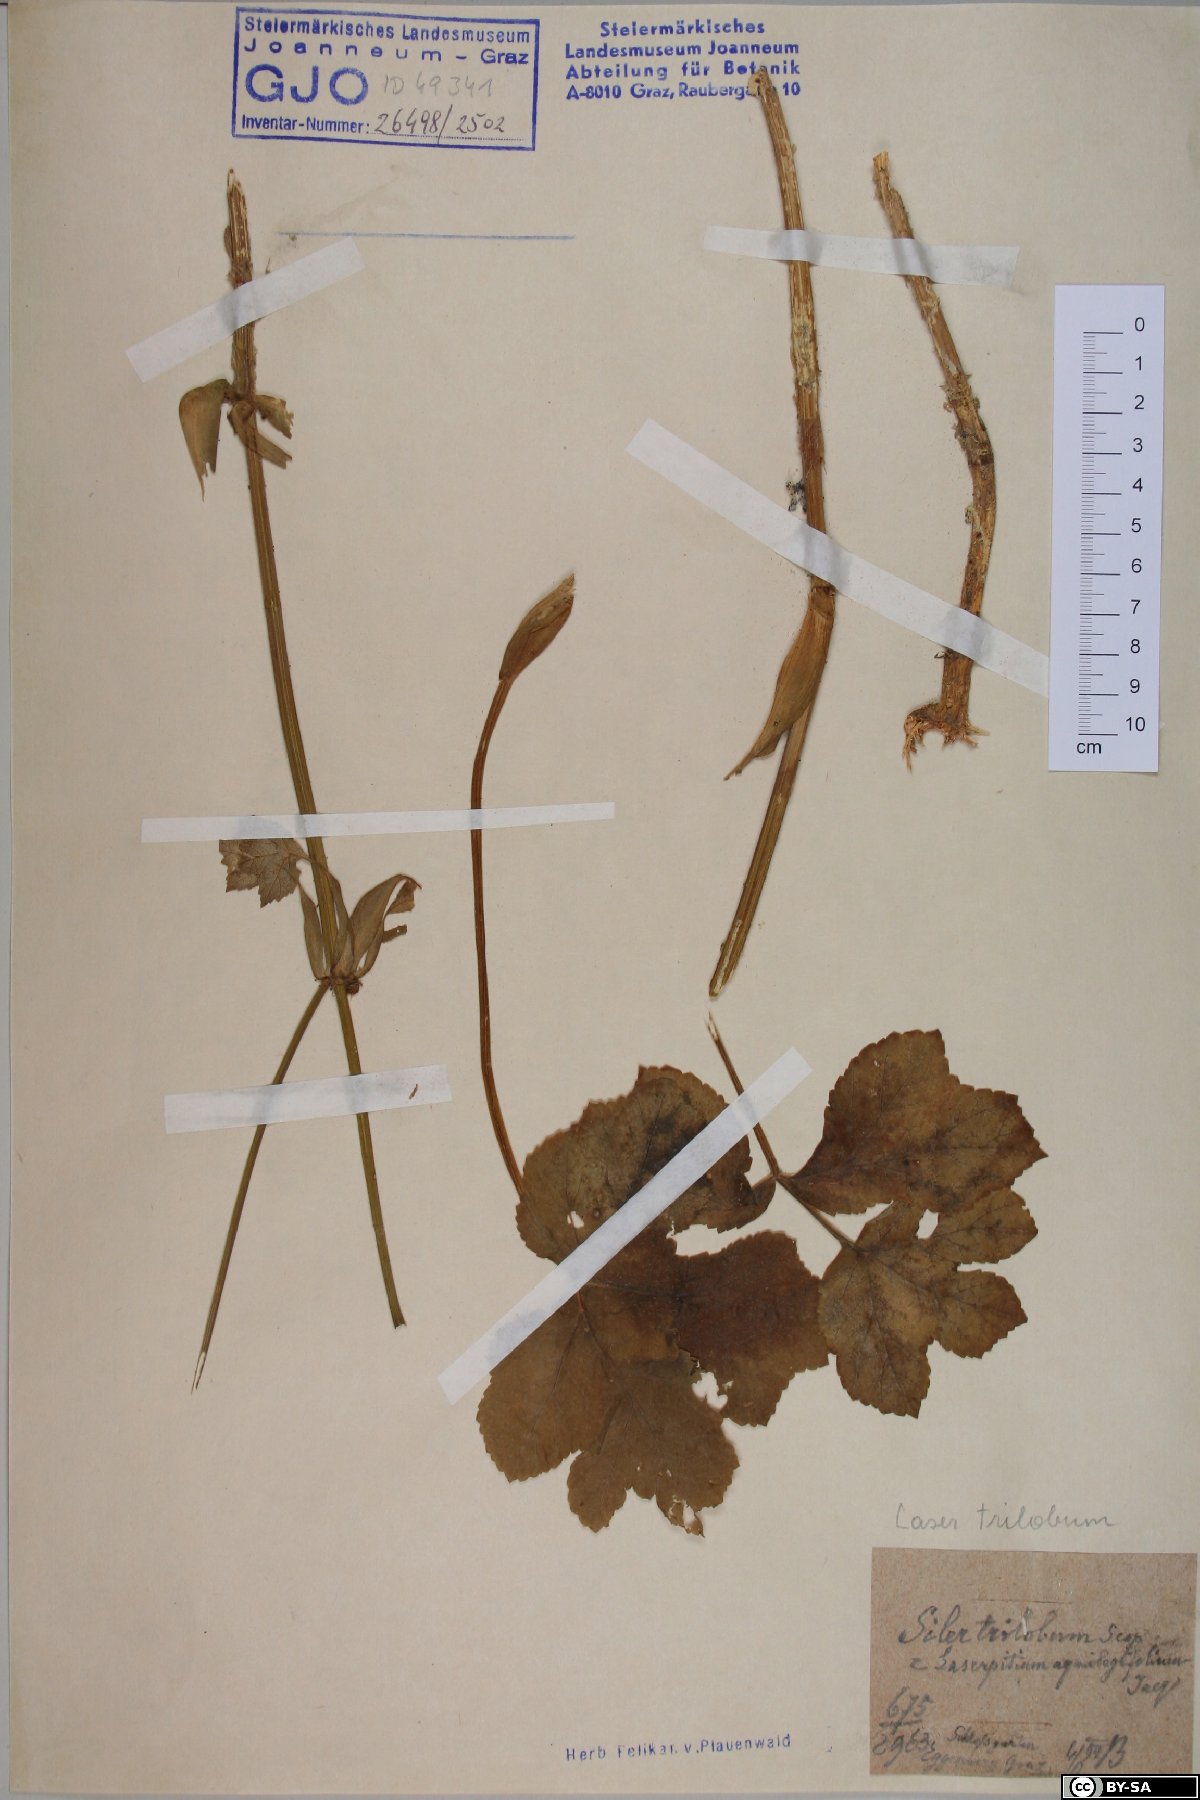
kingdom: Plantae
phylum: Tracheophyta
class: Magnoliopsida
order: Apiales
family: Apiaceae
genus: Heracleum
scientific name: Heracleum sphondylium
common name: Hogweed
